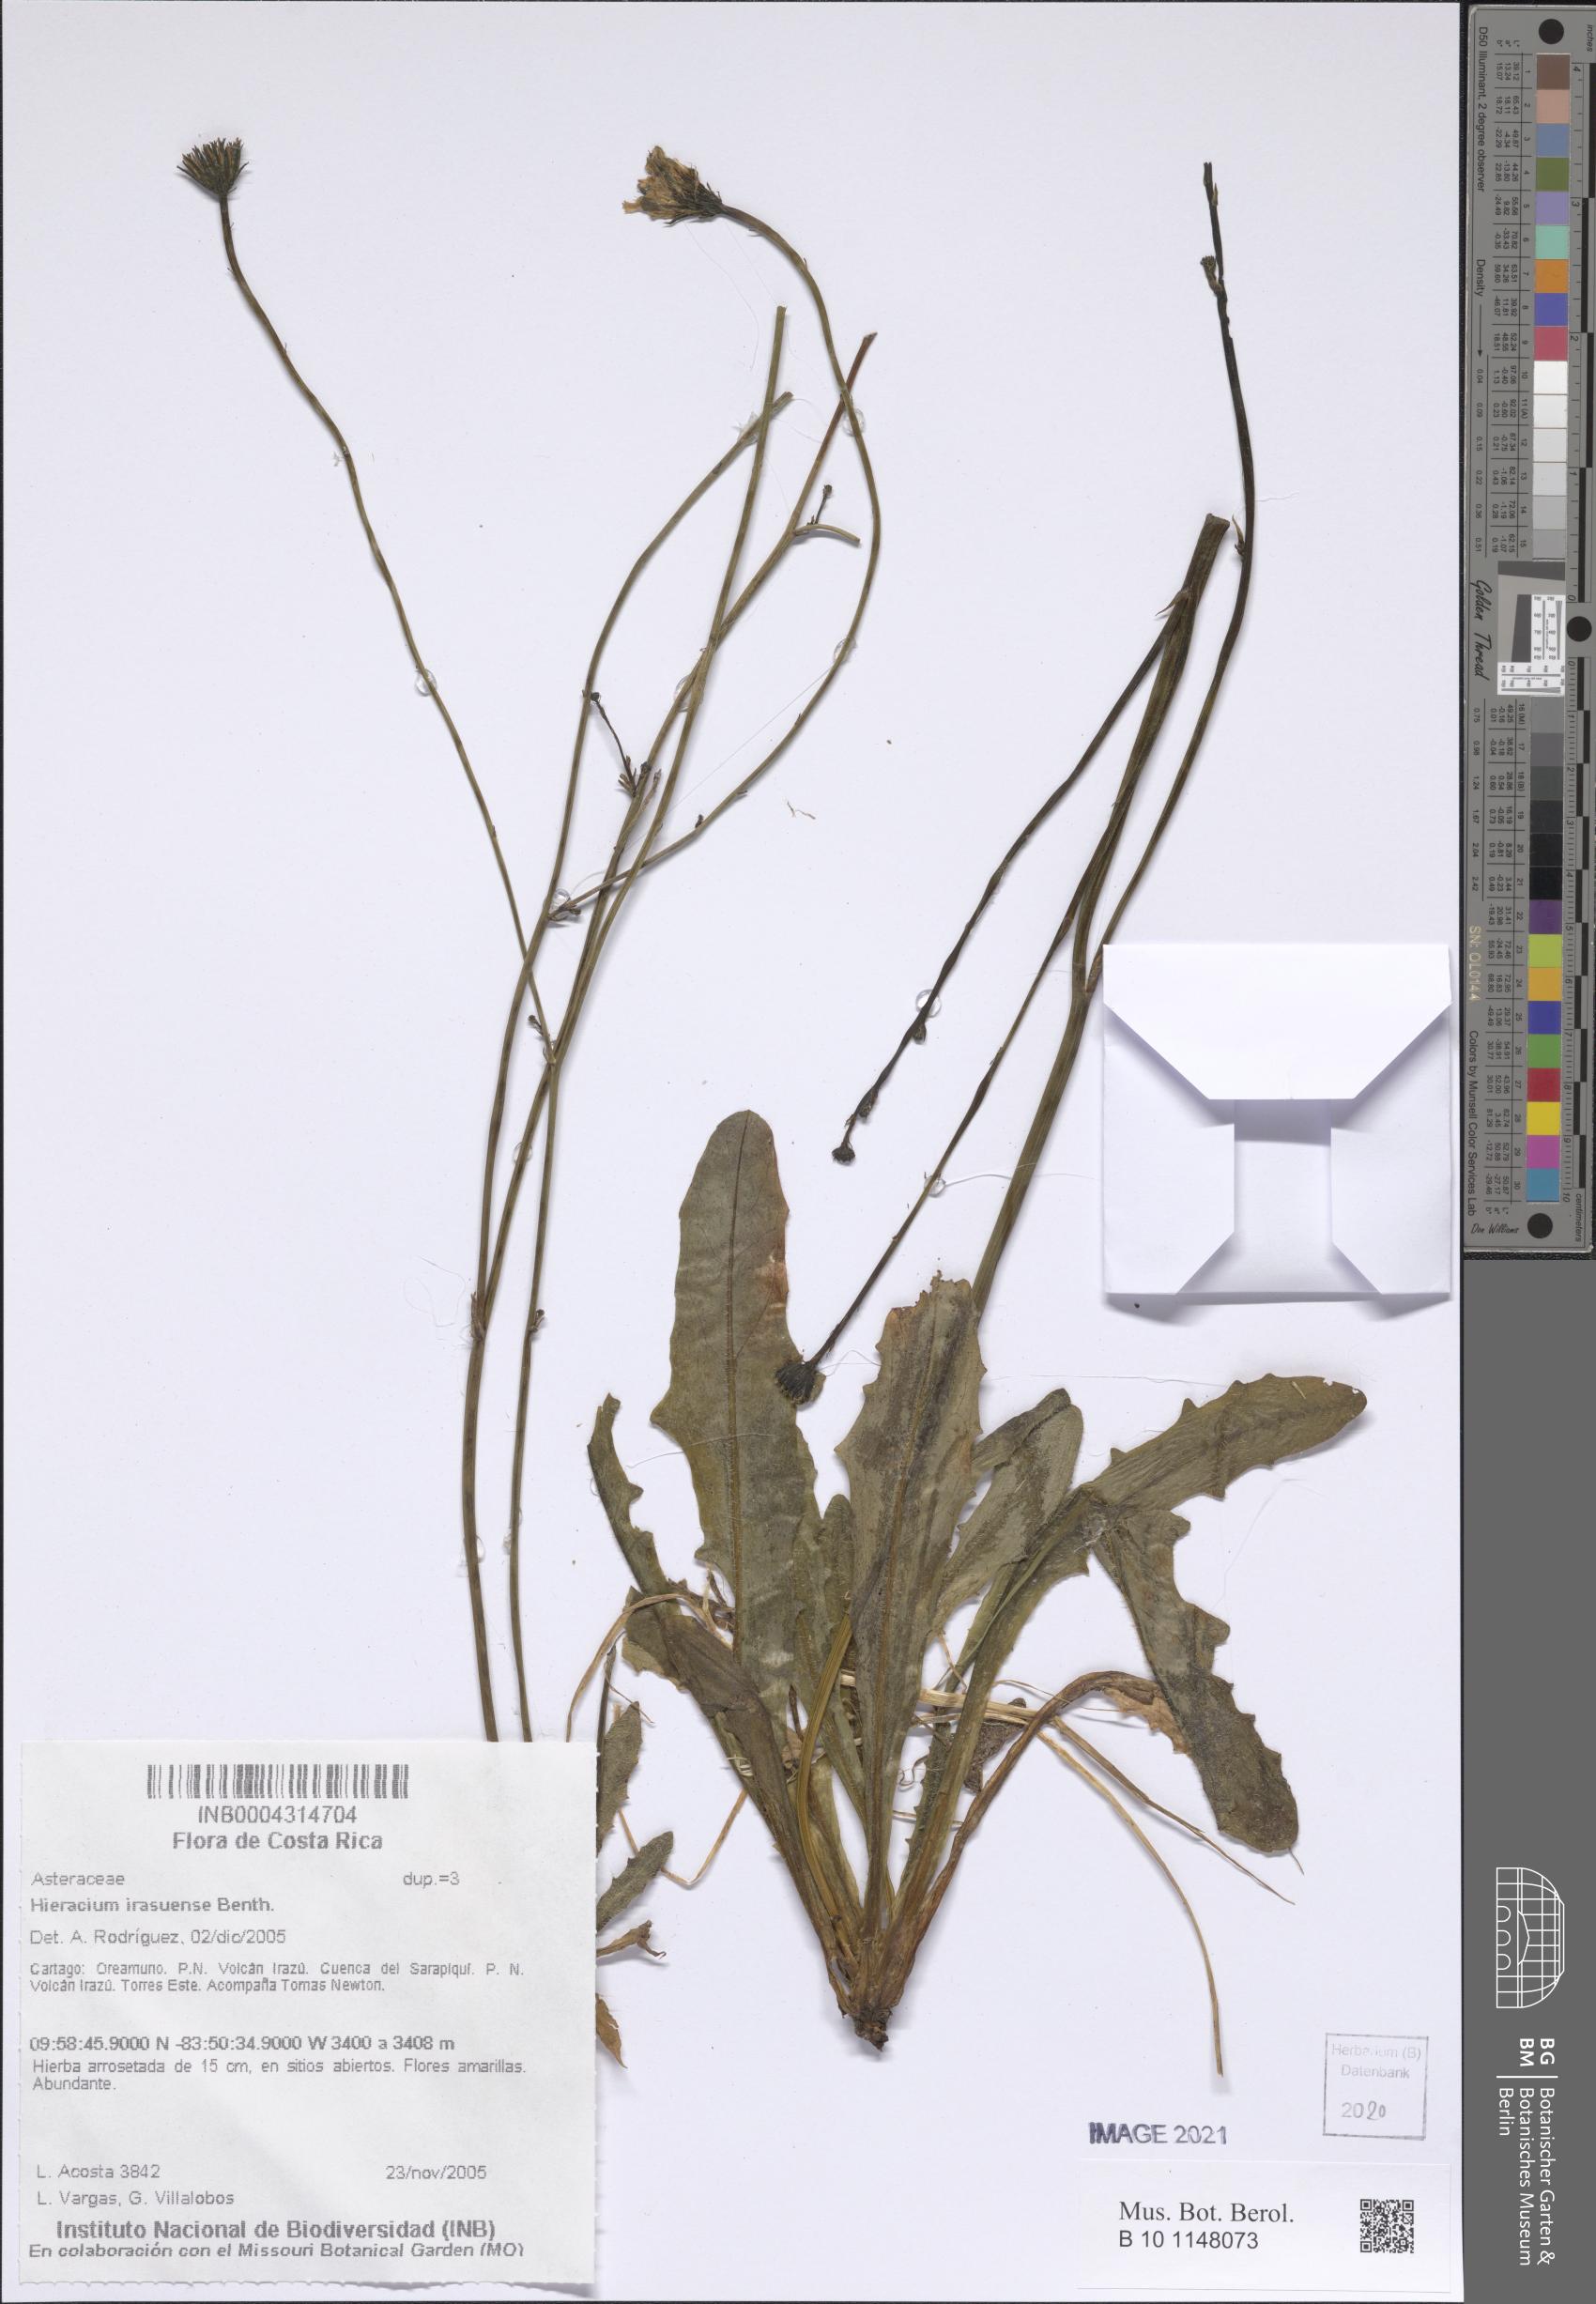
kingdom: Plantae
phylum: Tracheophyta
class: Magnoliopsida
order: Asterales
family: Asteraceae
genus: Hieracium
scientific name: Hieracium irasuense
